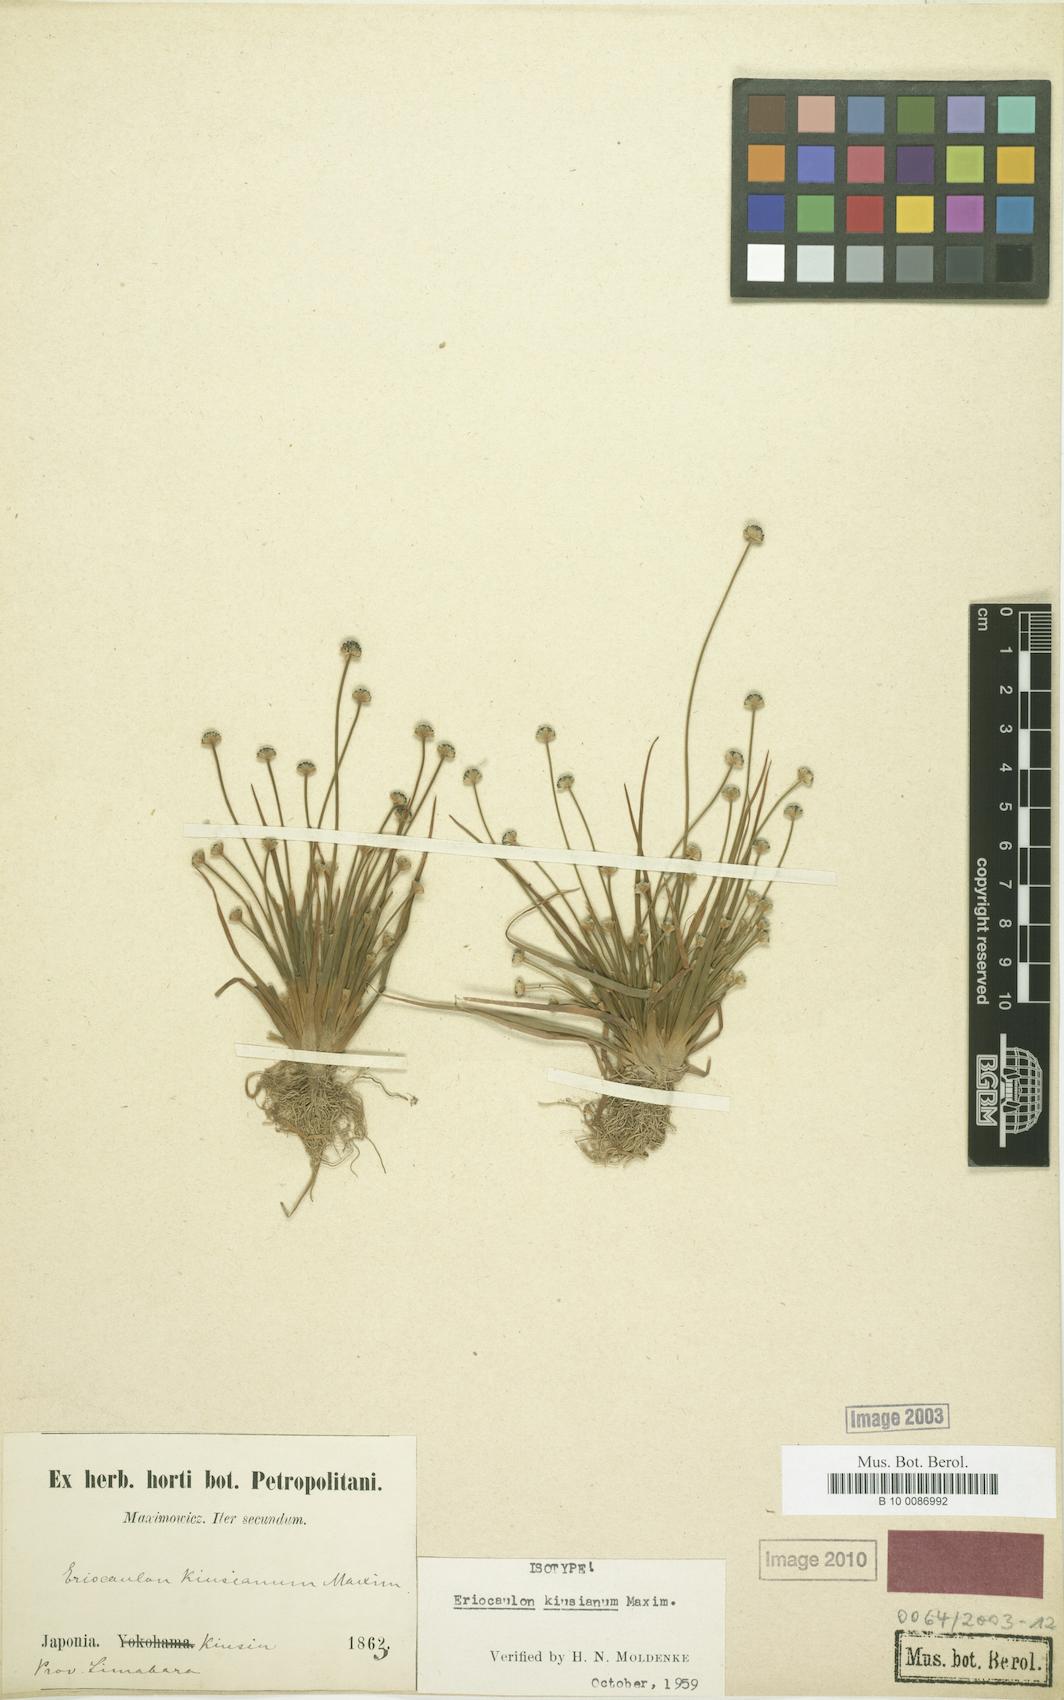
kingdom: Plantae
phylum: Tracheophyta
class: Liliopsida
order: Poales
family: Eriocaulaceae
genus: Eriocaulon
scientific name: Eriocaulon kiusianum
